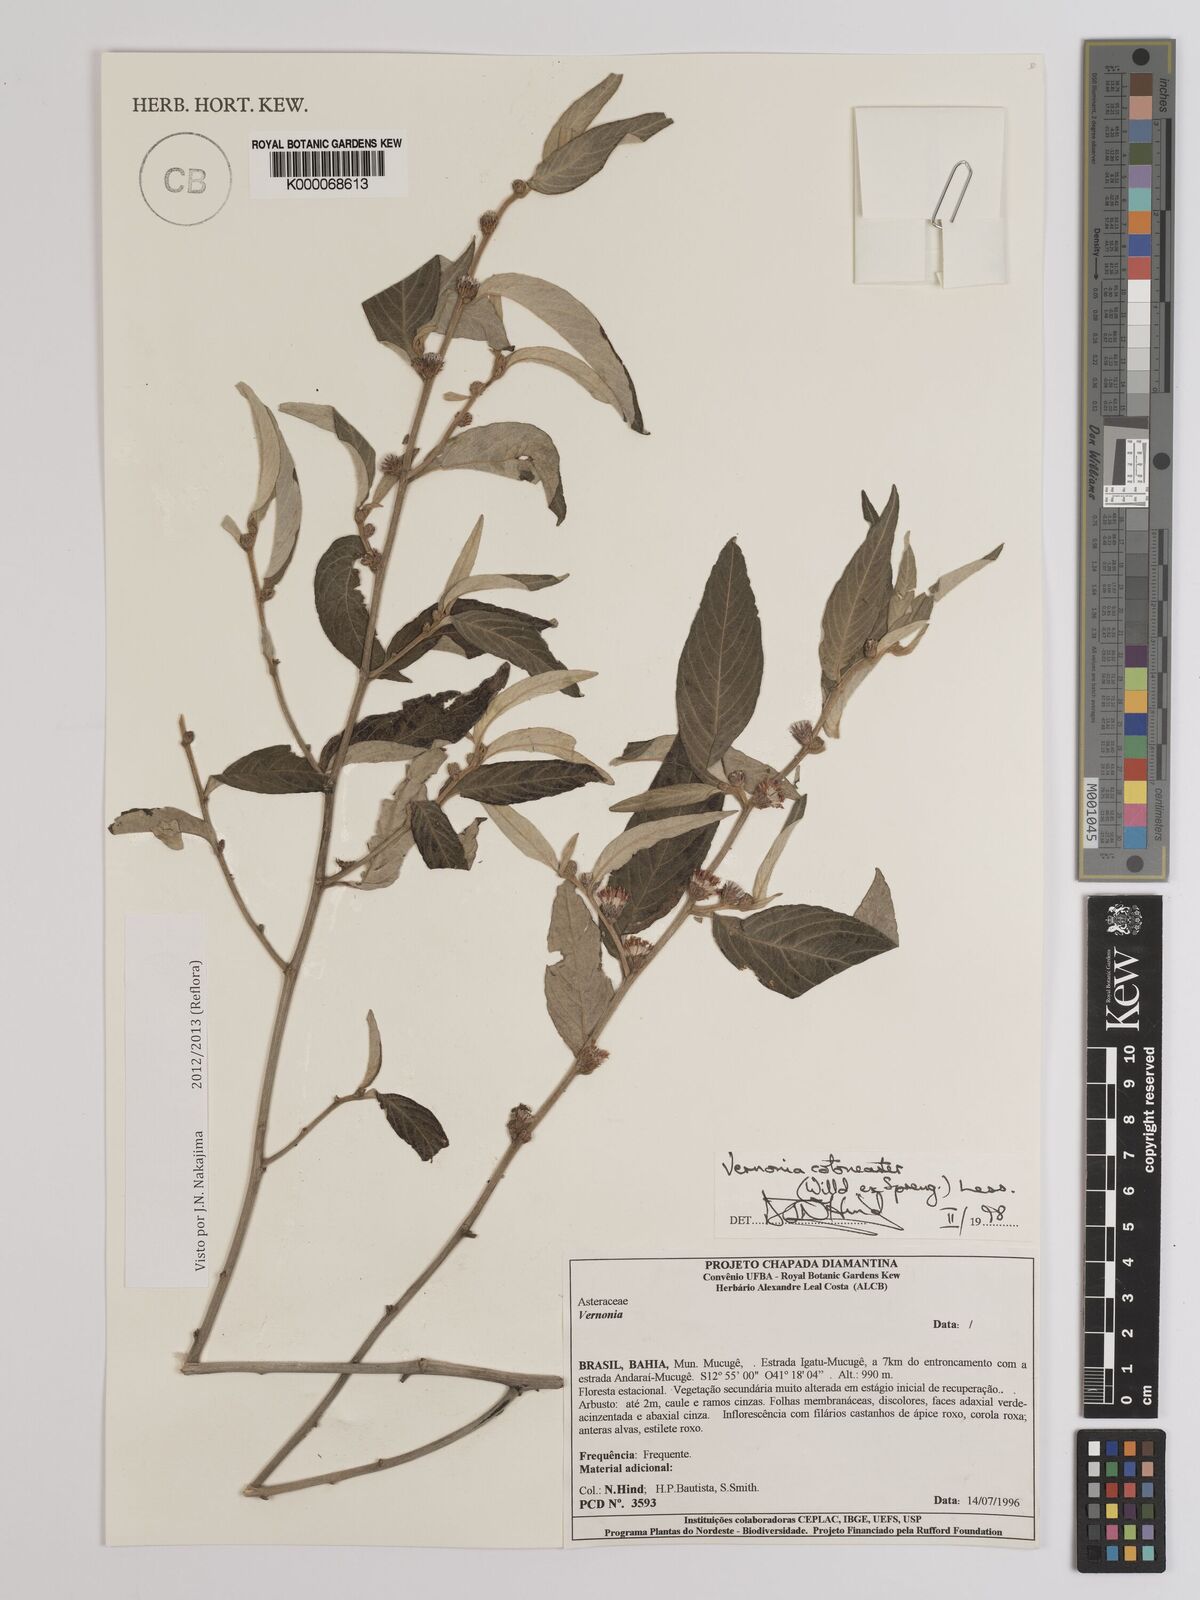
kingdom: Plantae
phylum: Tracheophyta
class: Magnoliopsida
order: Asterales
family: Asteraceae
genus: Lepidaploa
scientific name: Lepidaploa cotoneaster
